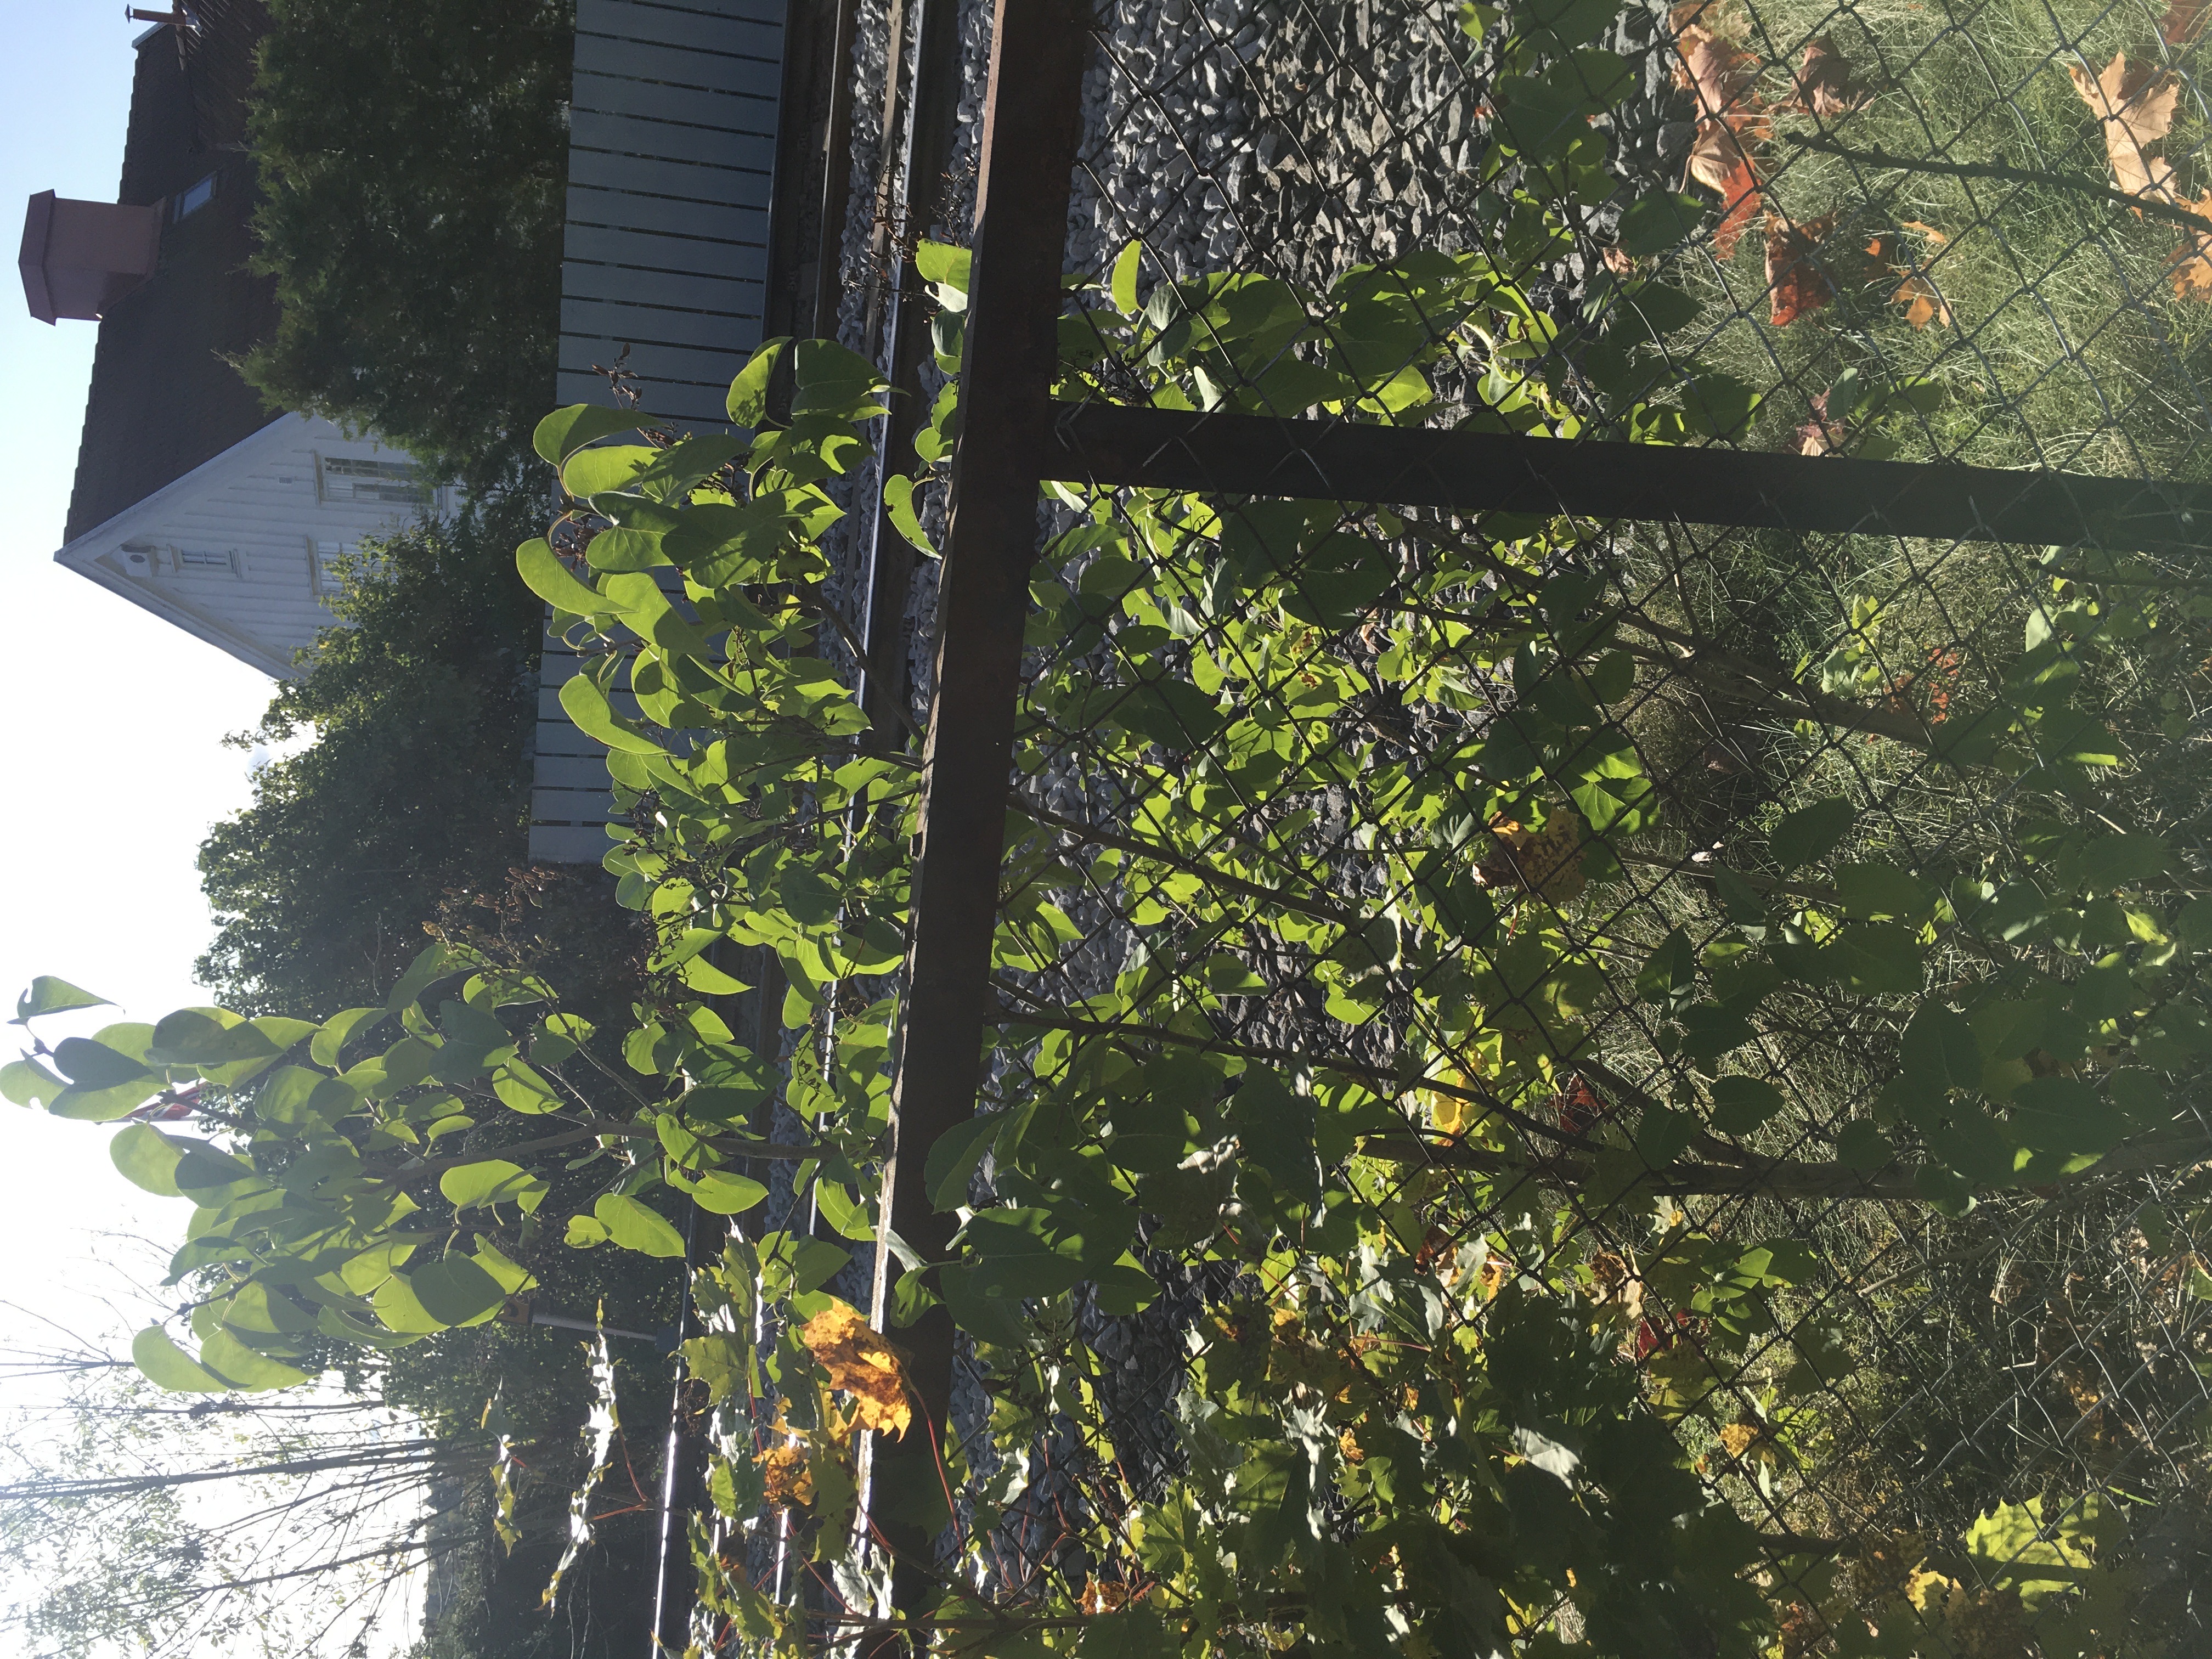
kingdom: Plantae
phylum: Tracheophyta
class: Magnoliopsida
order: Lamiales
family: Oleaceae
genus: Syringa
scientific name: Syringa vulgaris
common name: syrin
